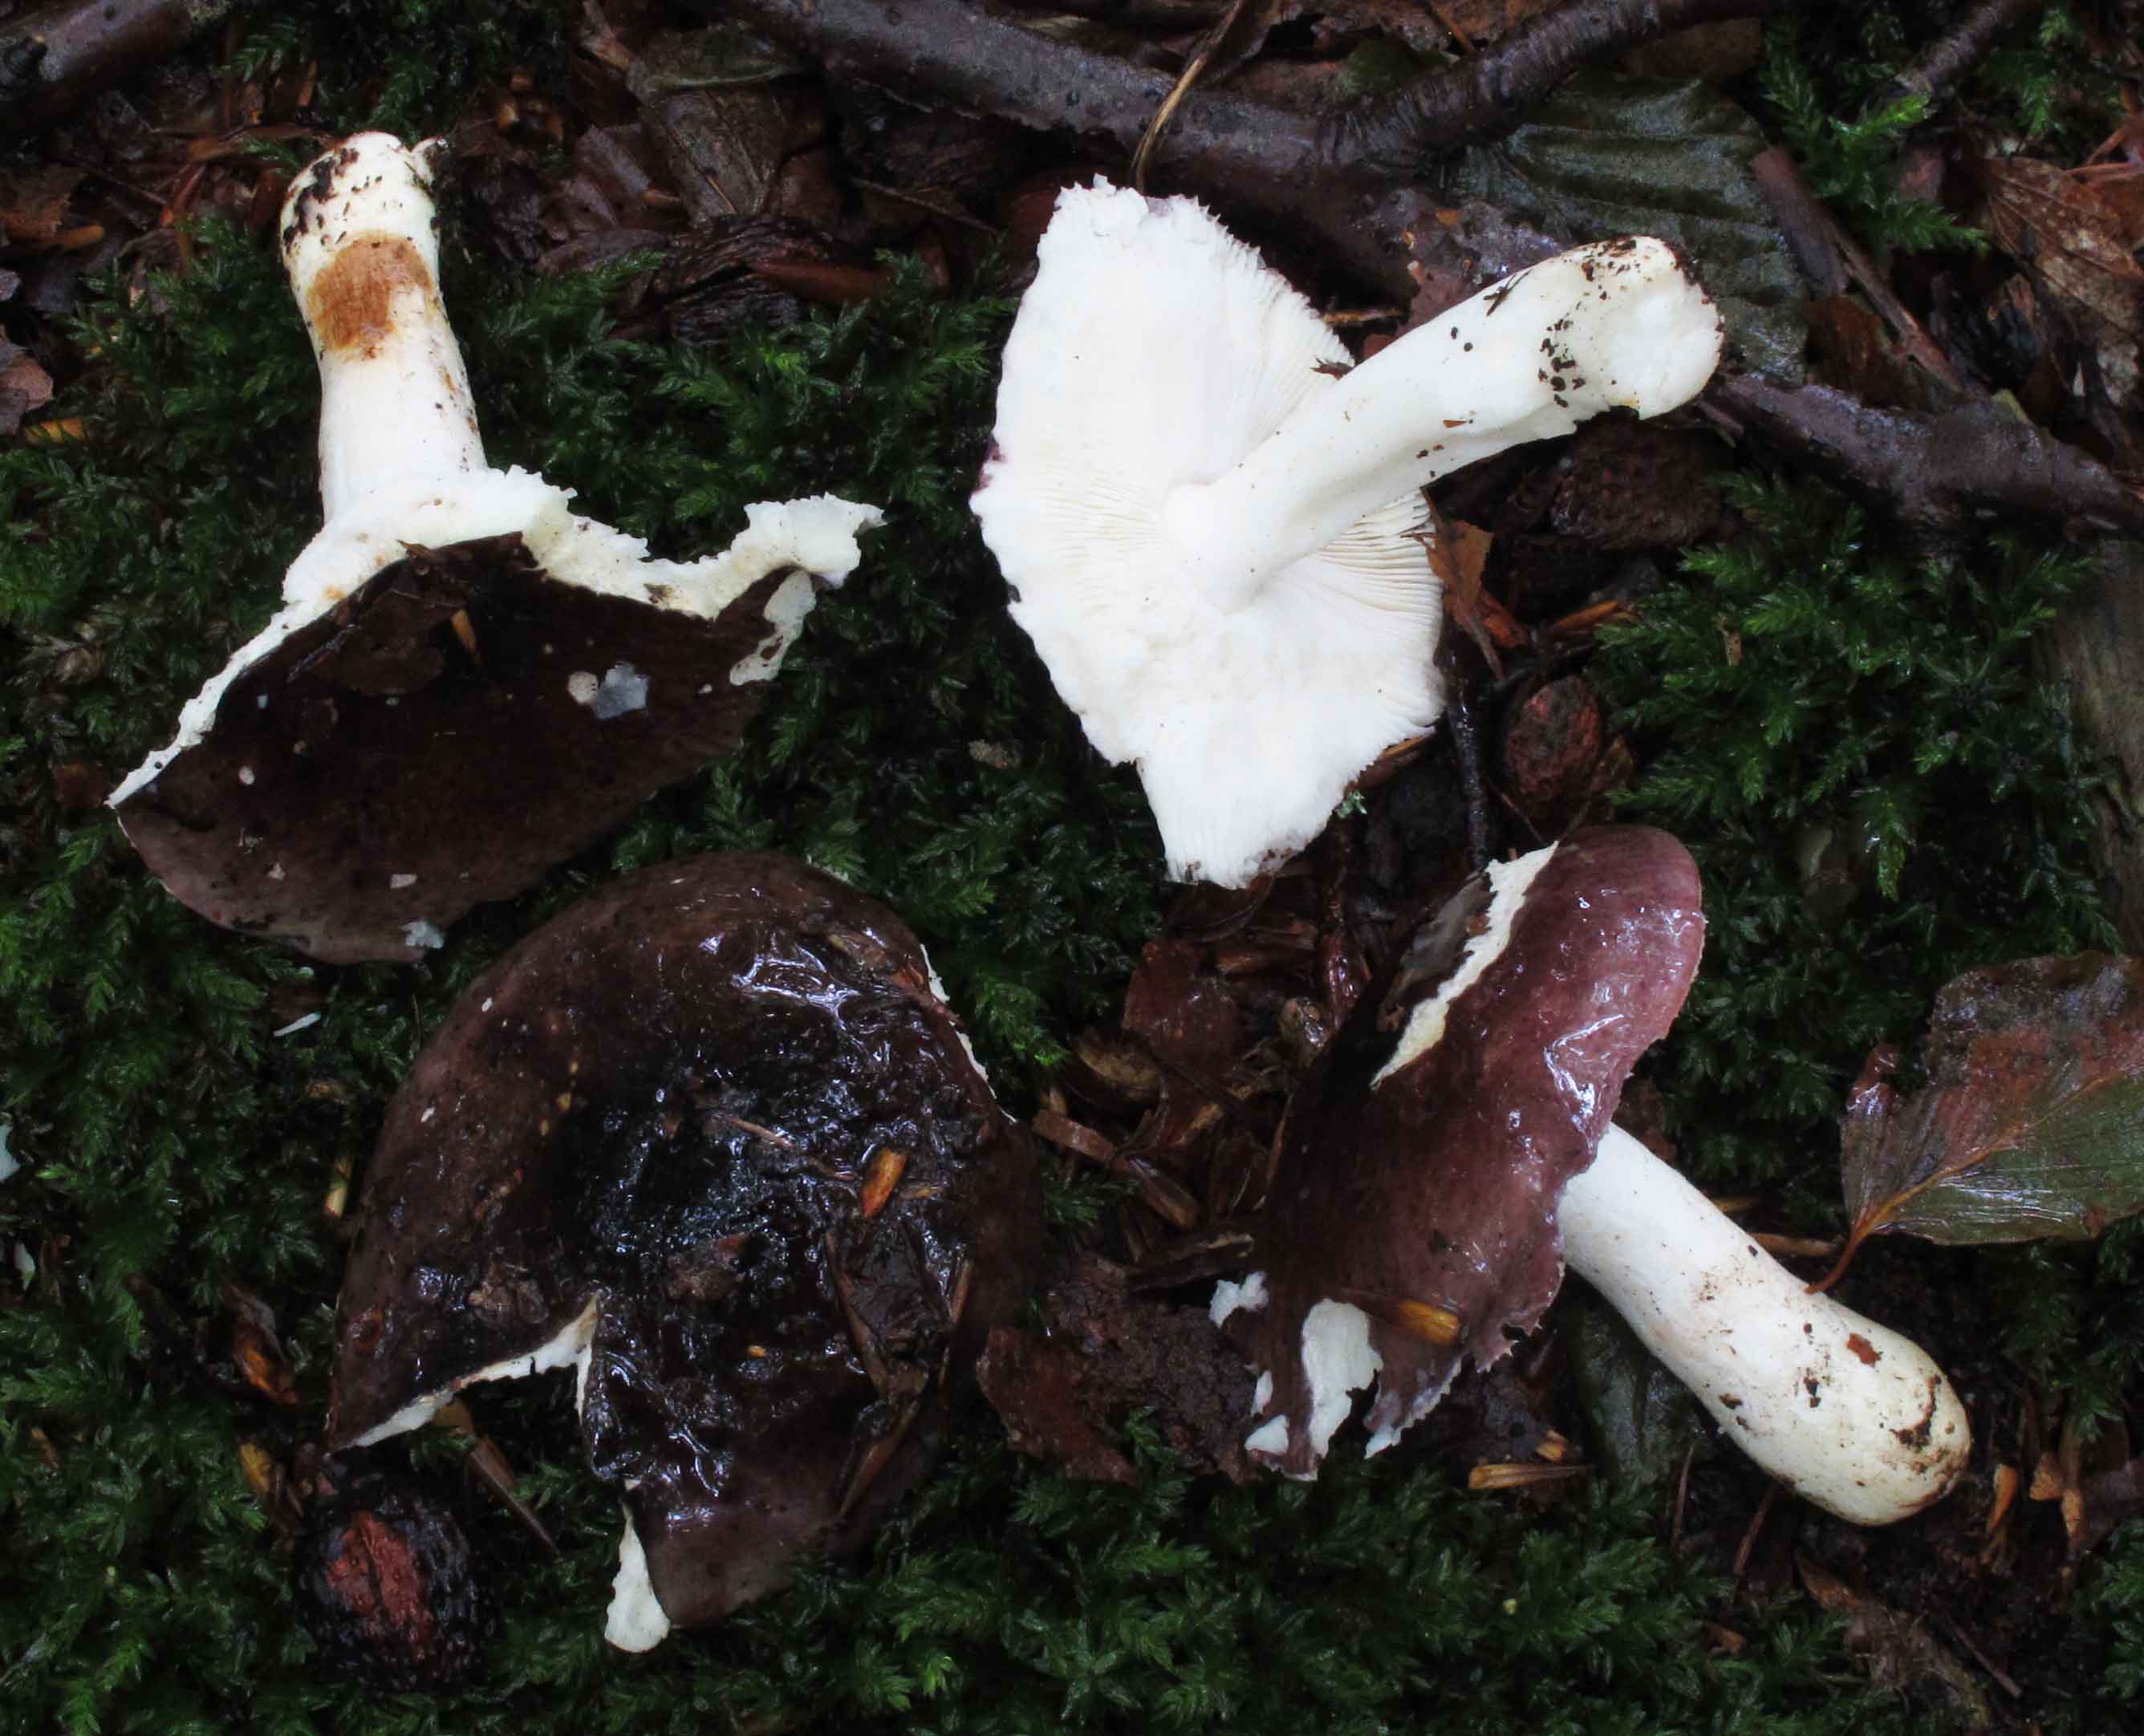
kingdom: Fungi
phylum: Basidiomycota
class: Agaricomycetes
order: Russulales
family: Russulaceae
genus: Russula
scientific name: Russula brunneoviolacea
